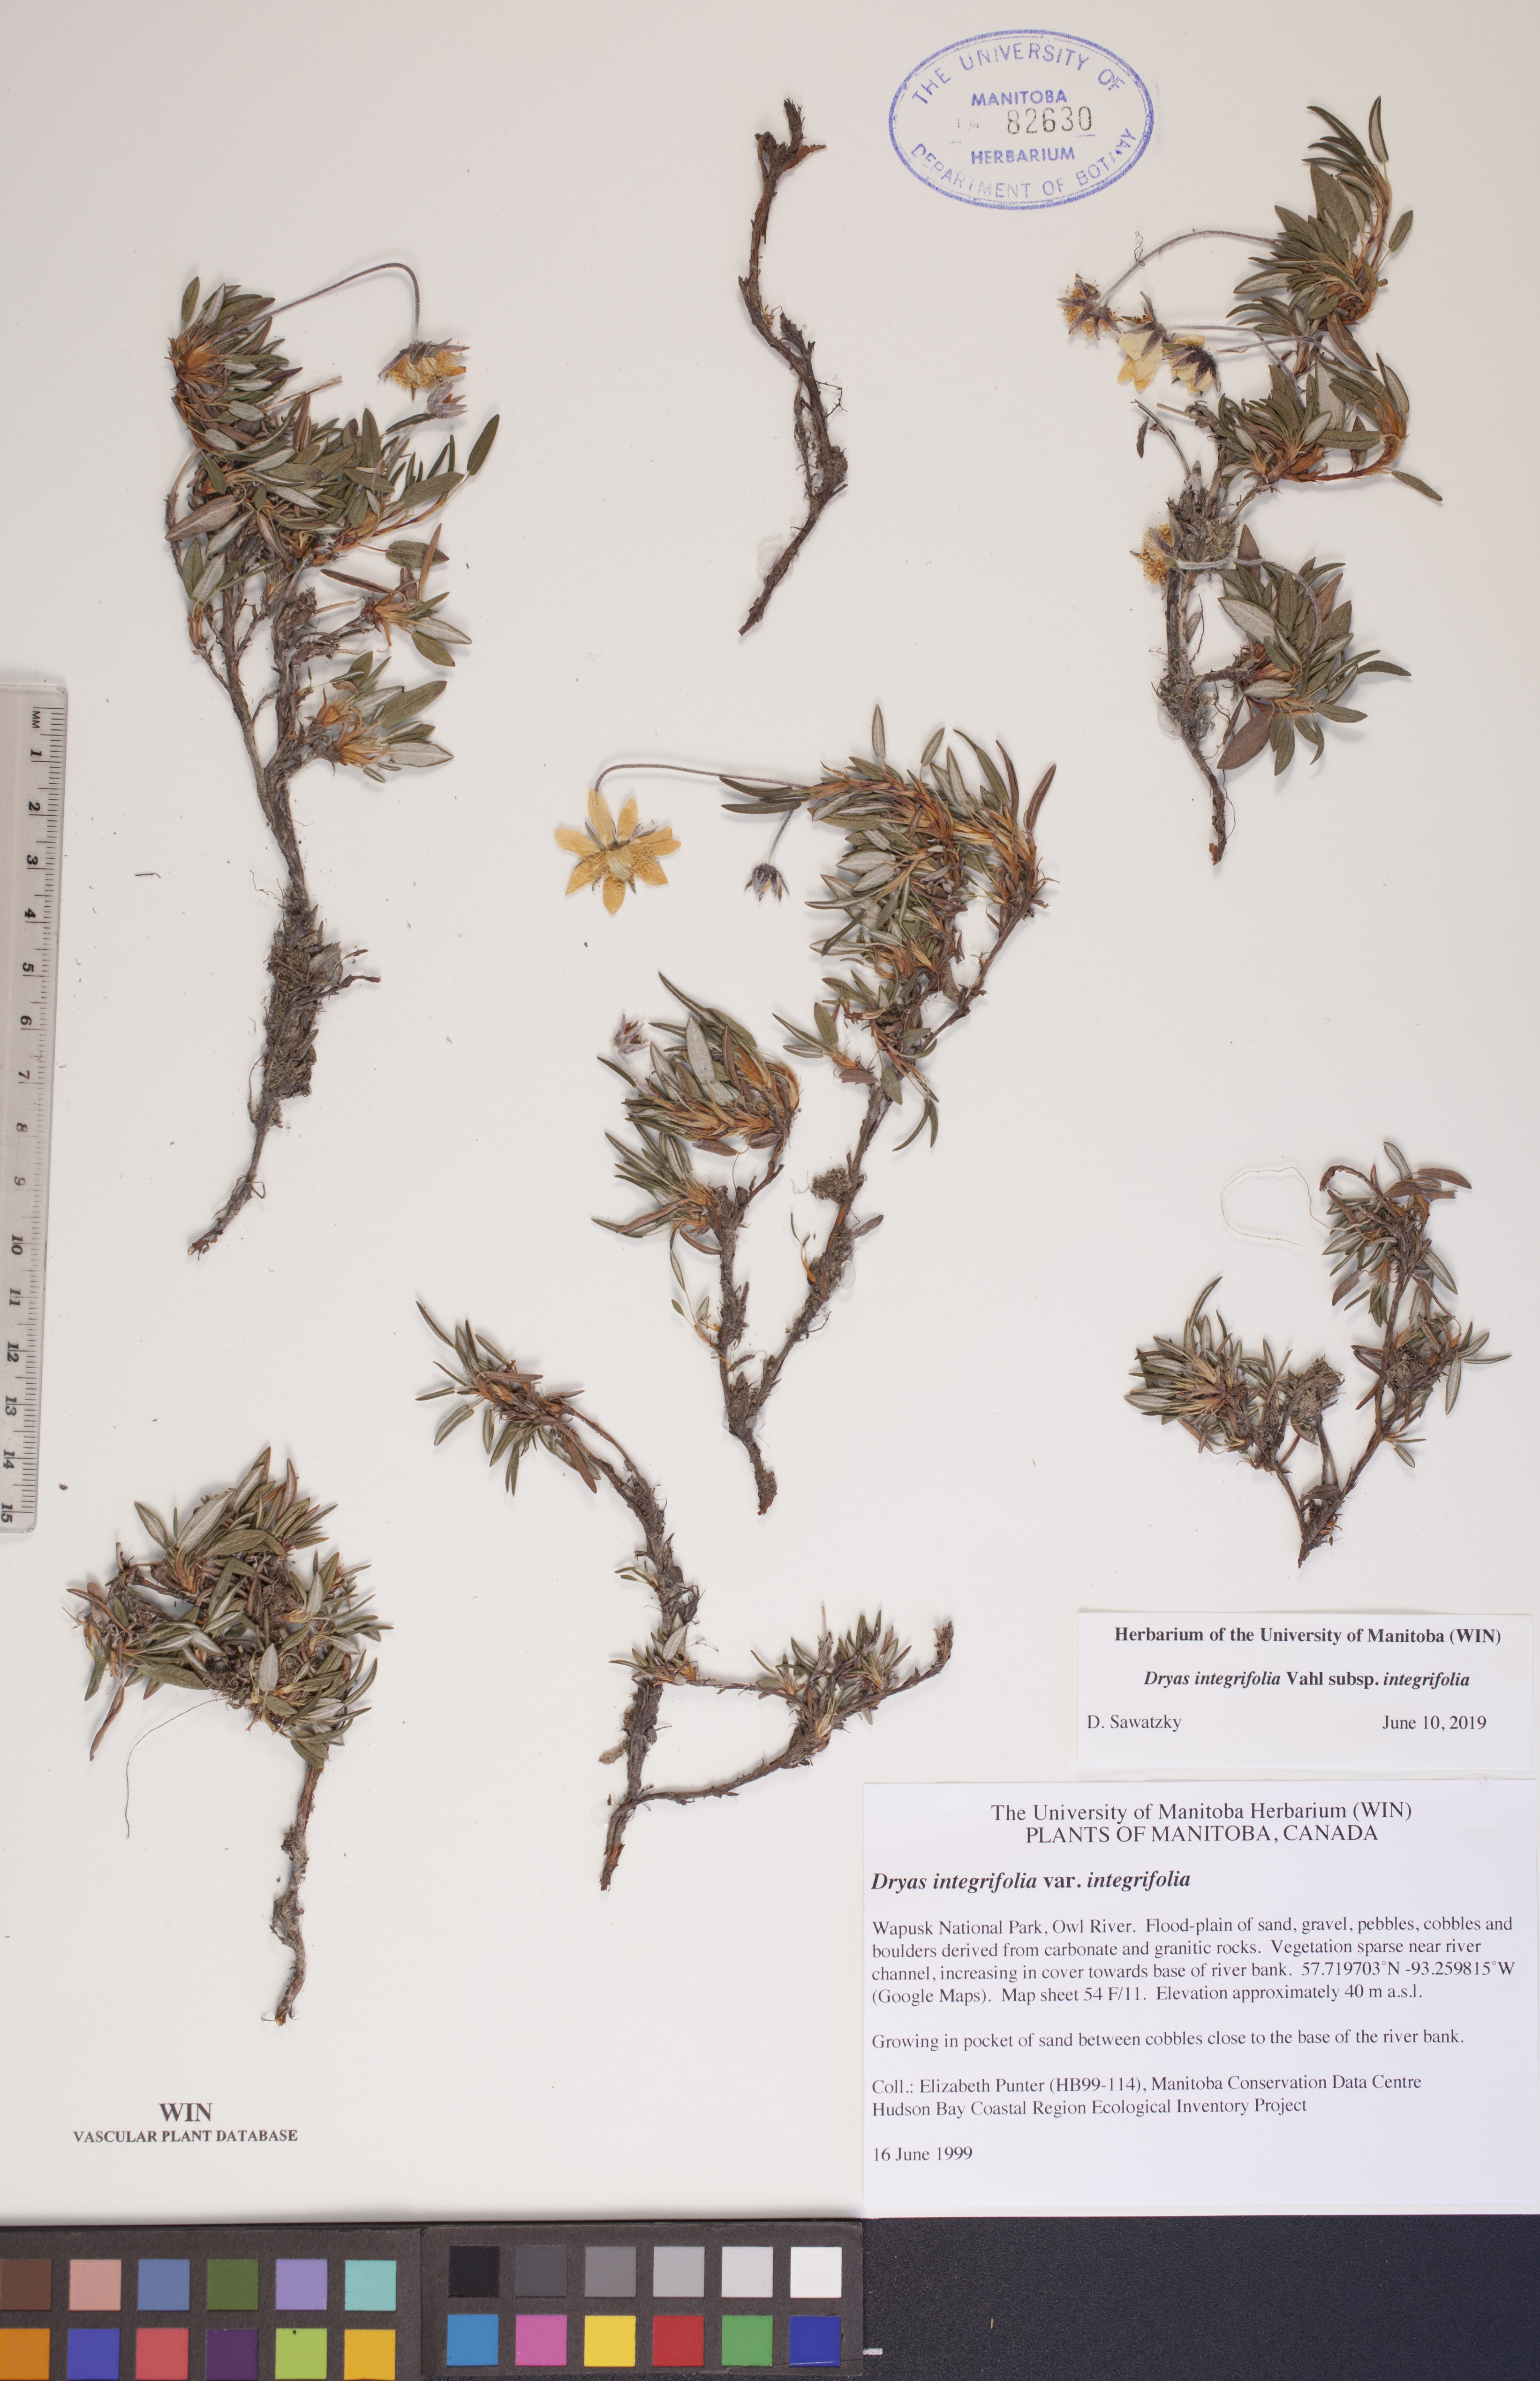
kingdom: Plantae
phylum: Tracheophyta
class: Magnoliopsida
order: Rosales
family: Rosaceae
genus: Dryas
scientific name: Dryas integrifolia
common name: Entire-leaved mountain avens
